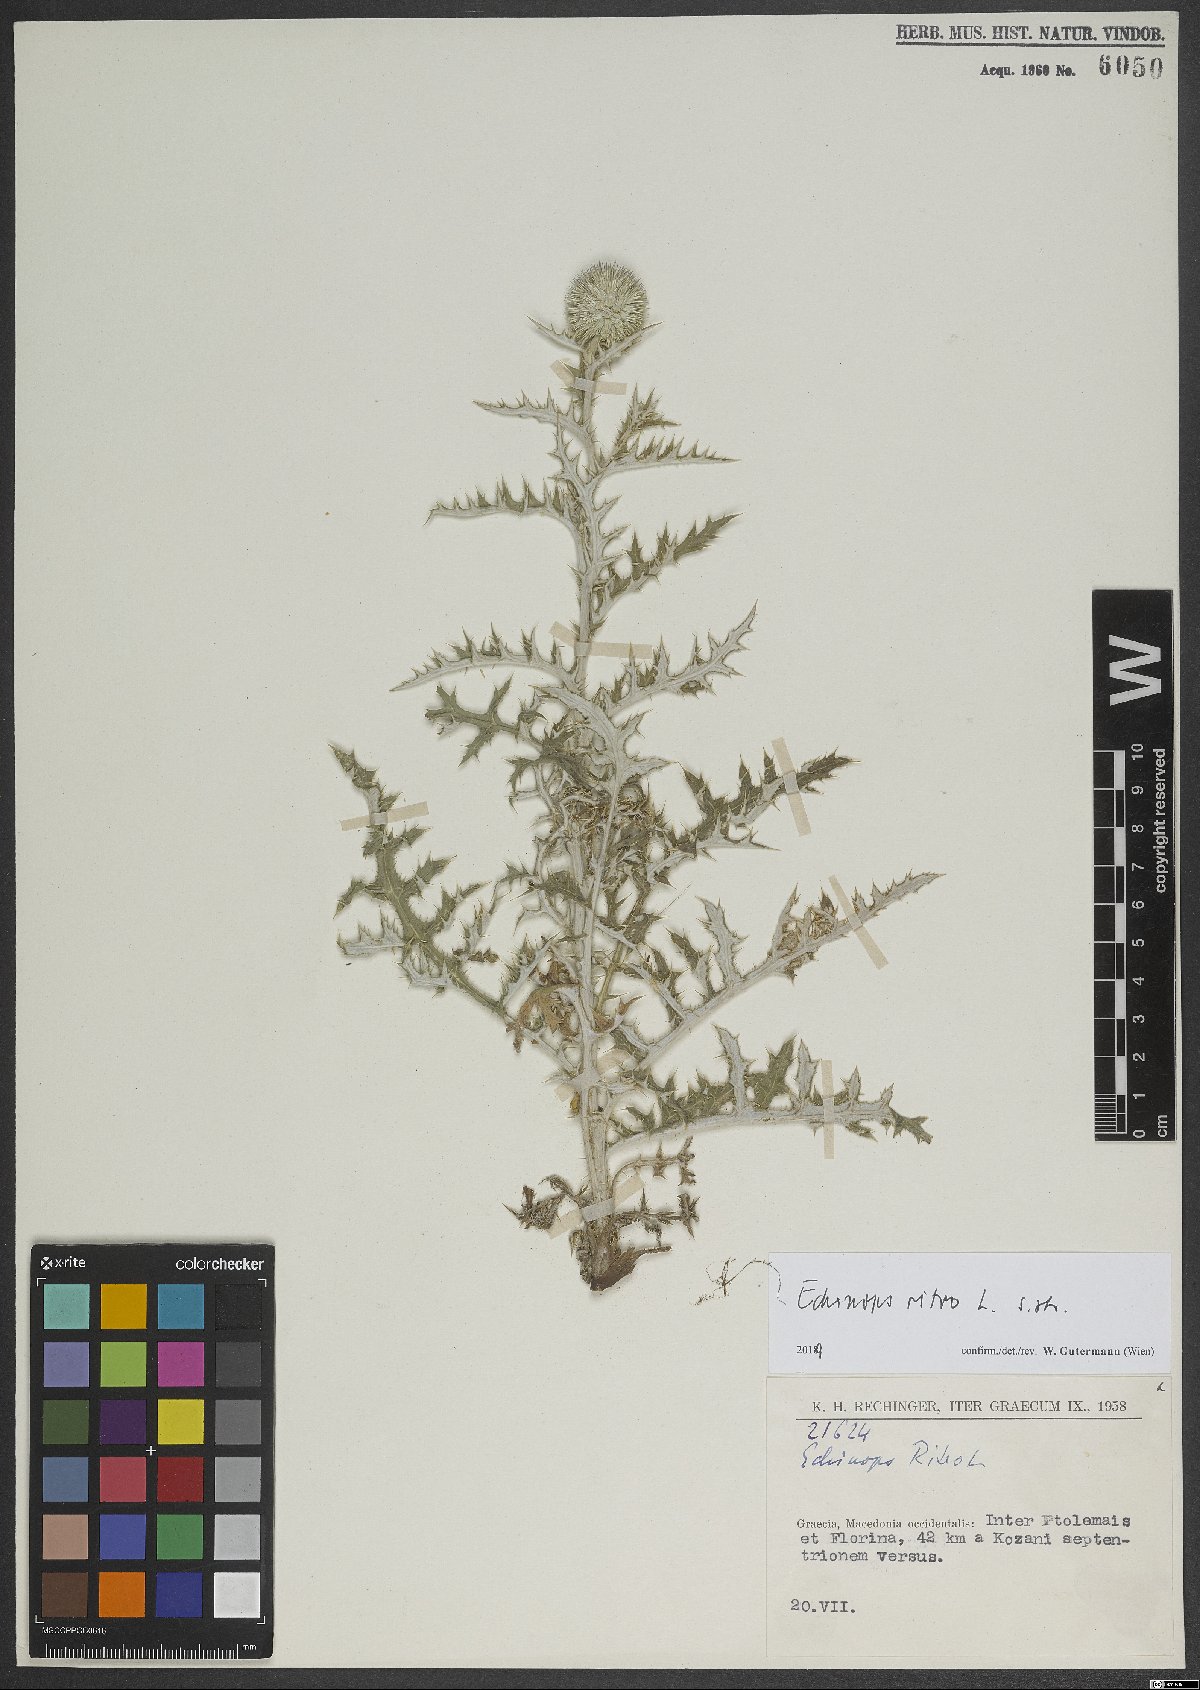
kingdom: Plantae
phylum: Tracheophyta
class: Magnoliopsida
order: Asterales
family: Asteraceae
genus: Echinops
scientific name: Echinops ritro
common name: Globe thistle
